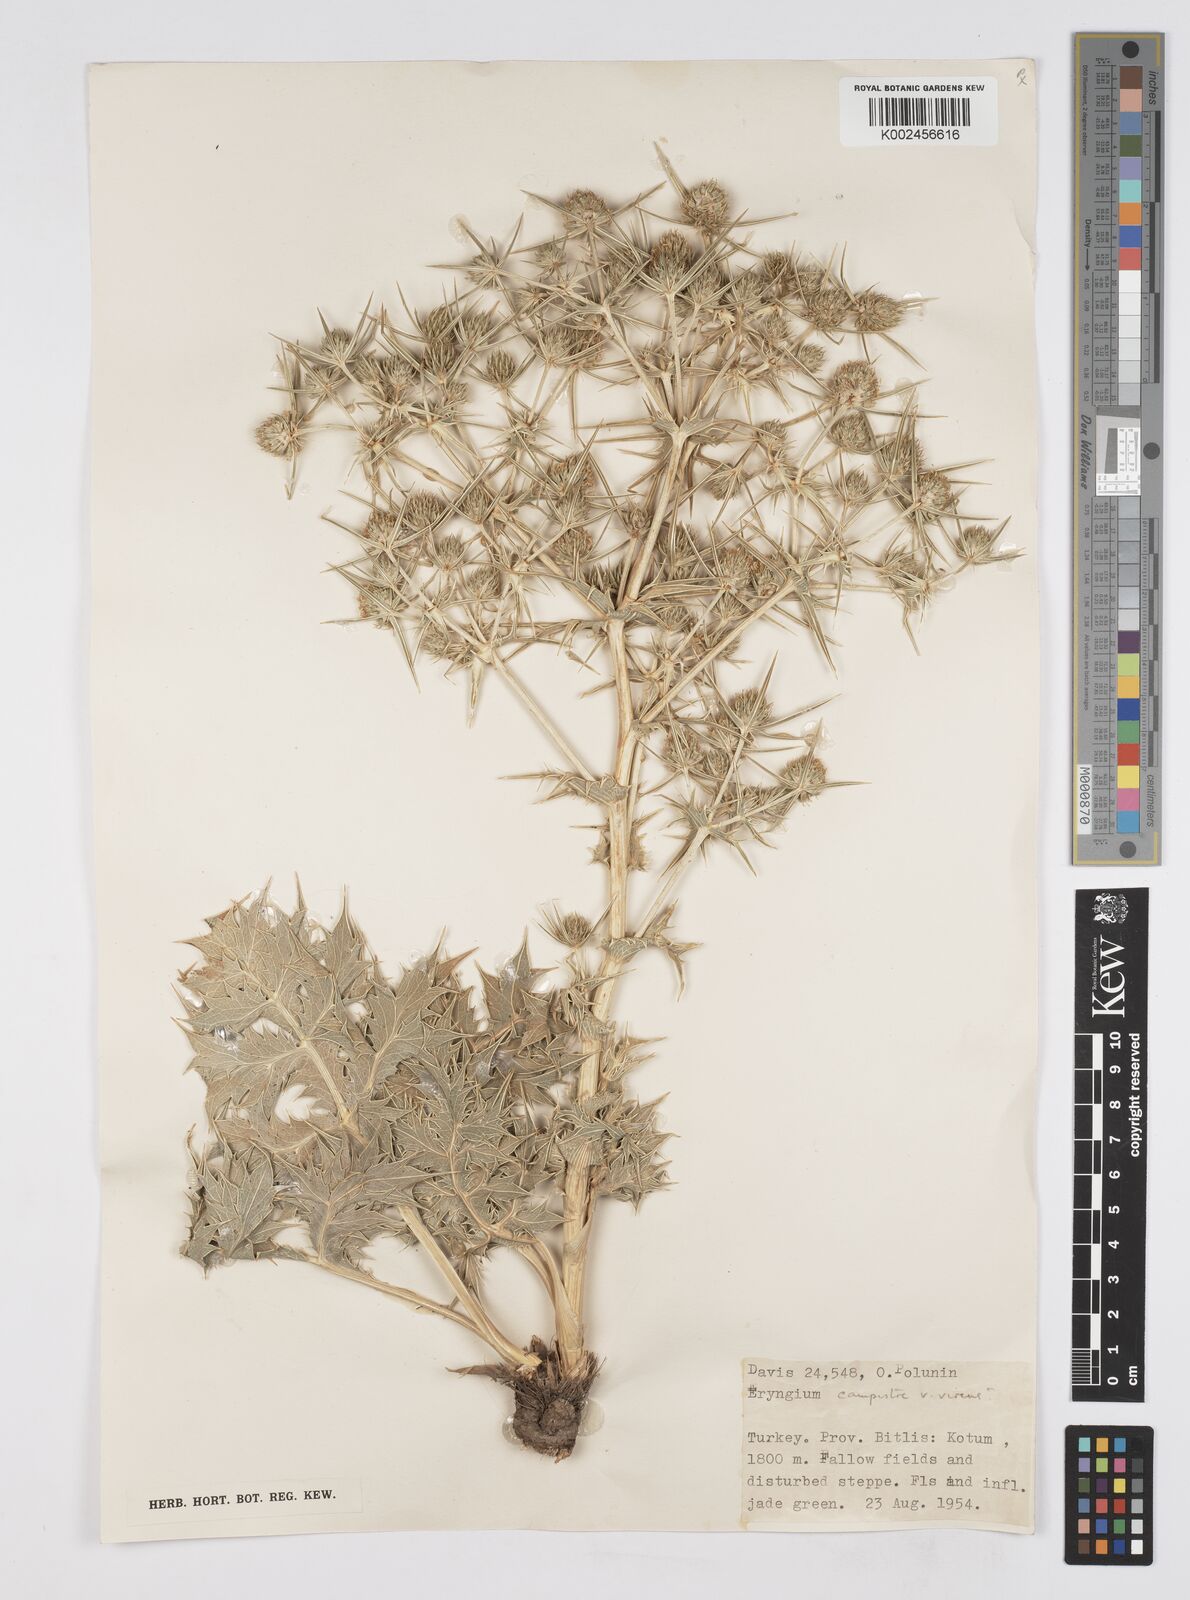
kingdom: Plantae
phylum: Tracheophyta
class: Magnoliopsida
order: Apiales
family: Apiaceae
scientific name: Apiaceae
